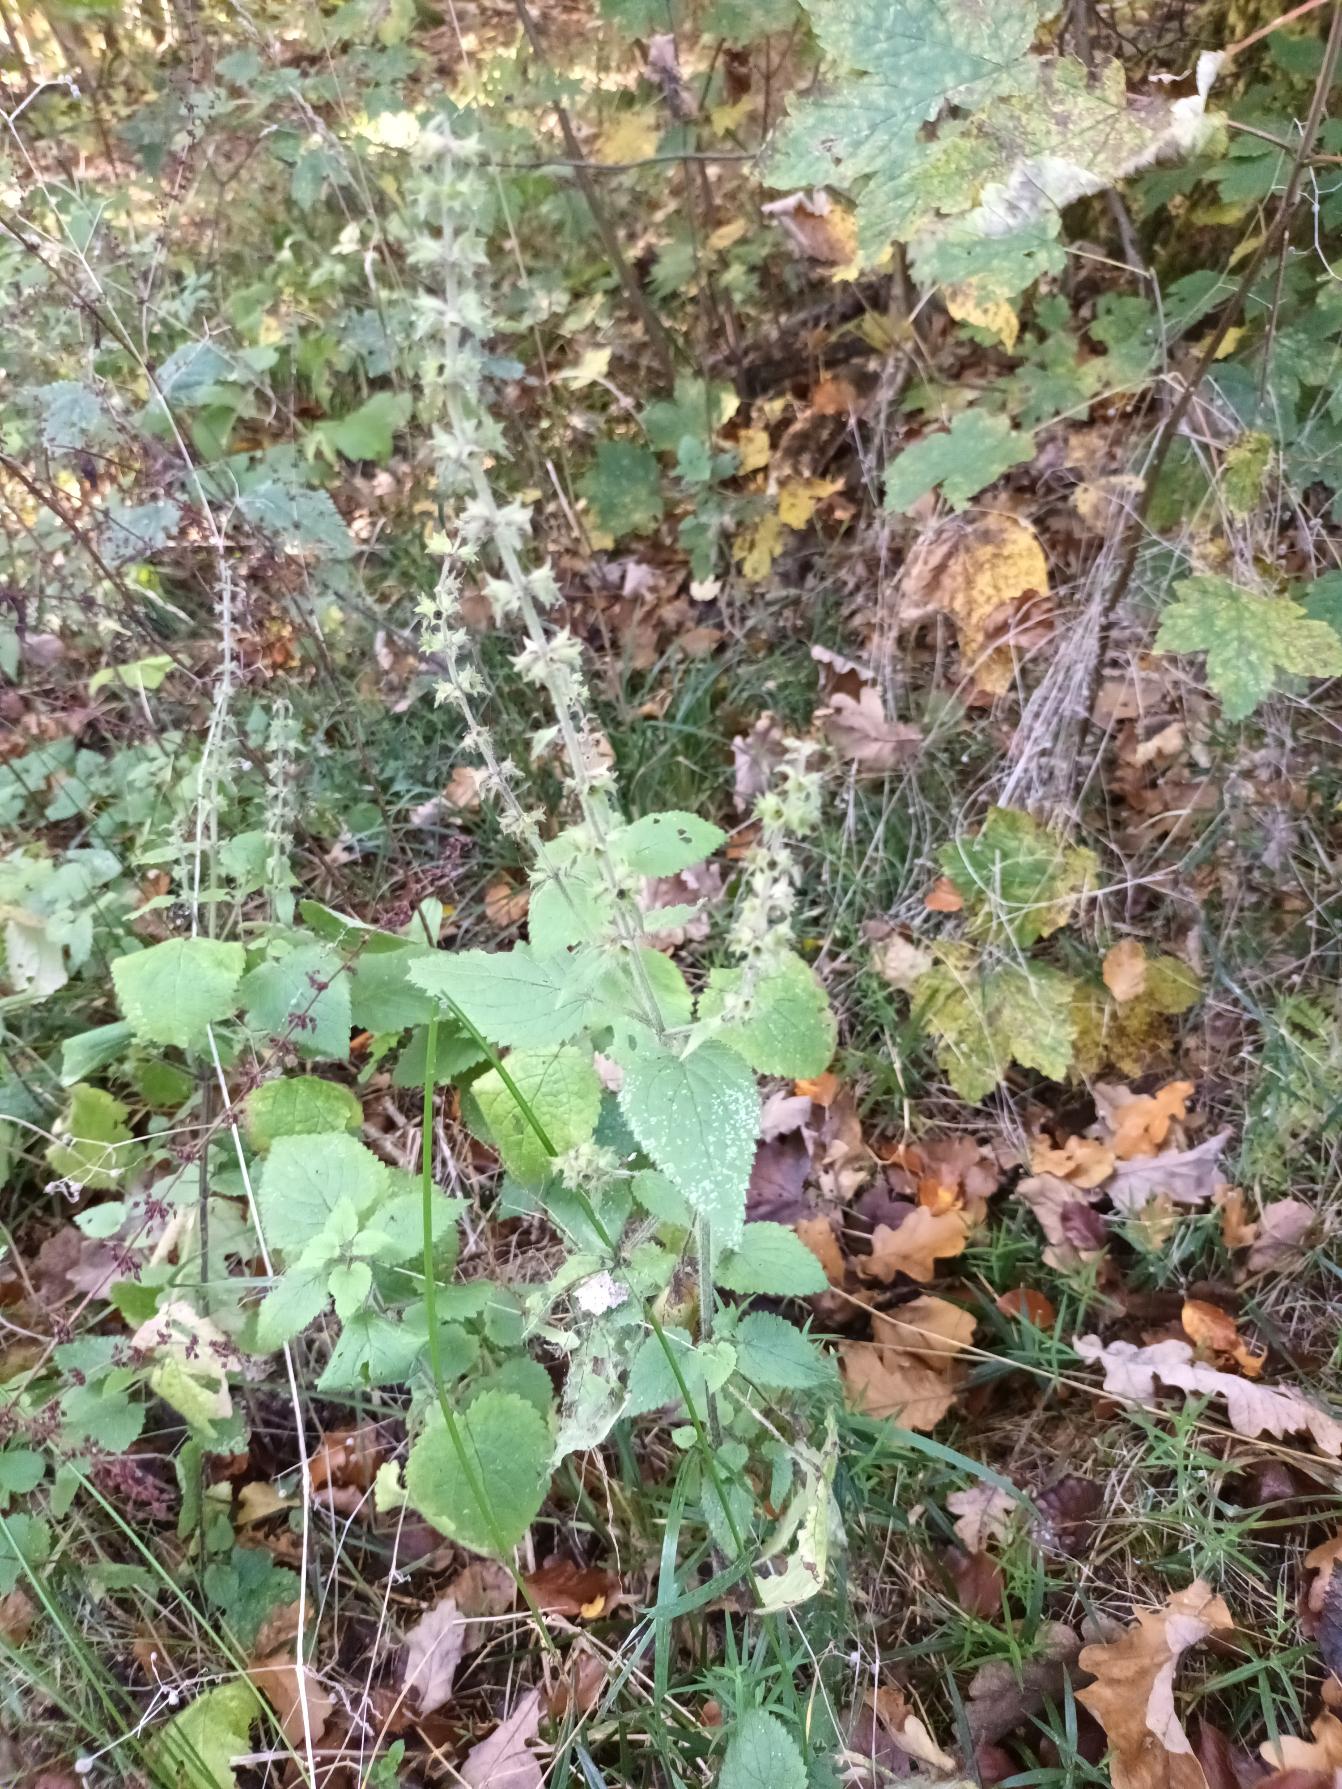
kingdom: Plantae
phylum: Tracheophyta
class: Magnoliopsida
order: Lamiales
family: Lamiaceae
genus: Stachys
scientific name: Stachys sylvatica
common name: Skov-galtetand
